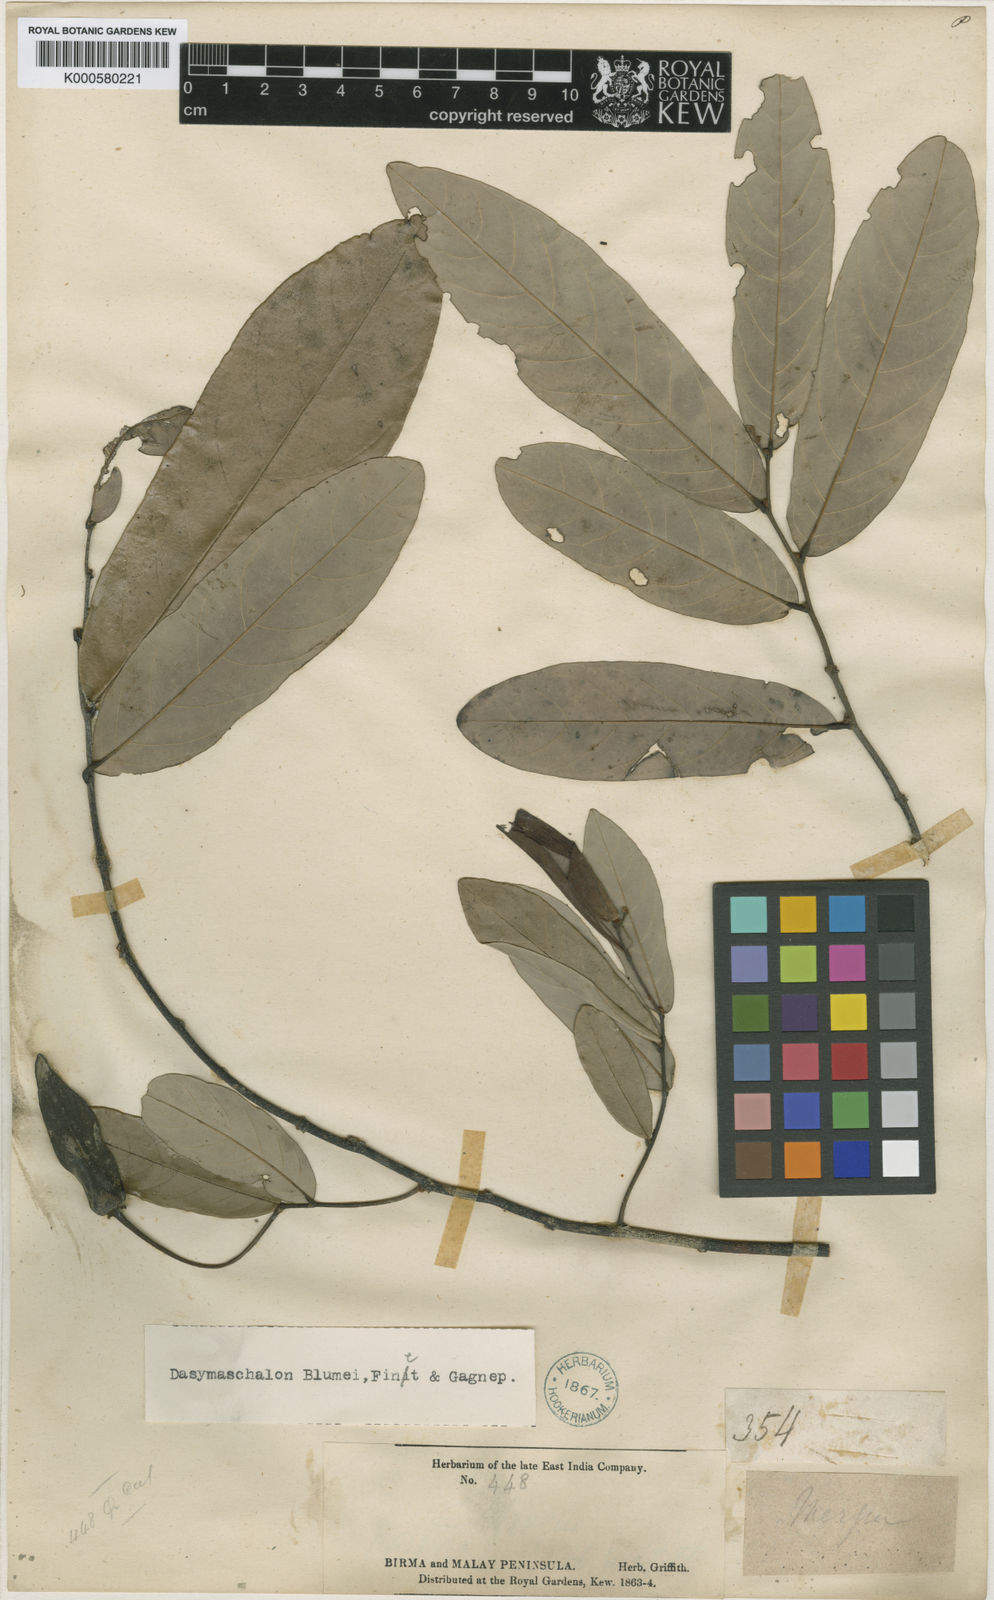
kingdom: Plantae
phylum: Tracheophyta
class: Magnoliopsida
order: Magnoliales
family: Annonaceae
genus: Dasymaschalon
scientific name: Dasymaschalon
